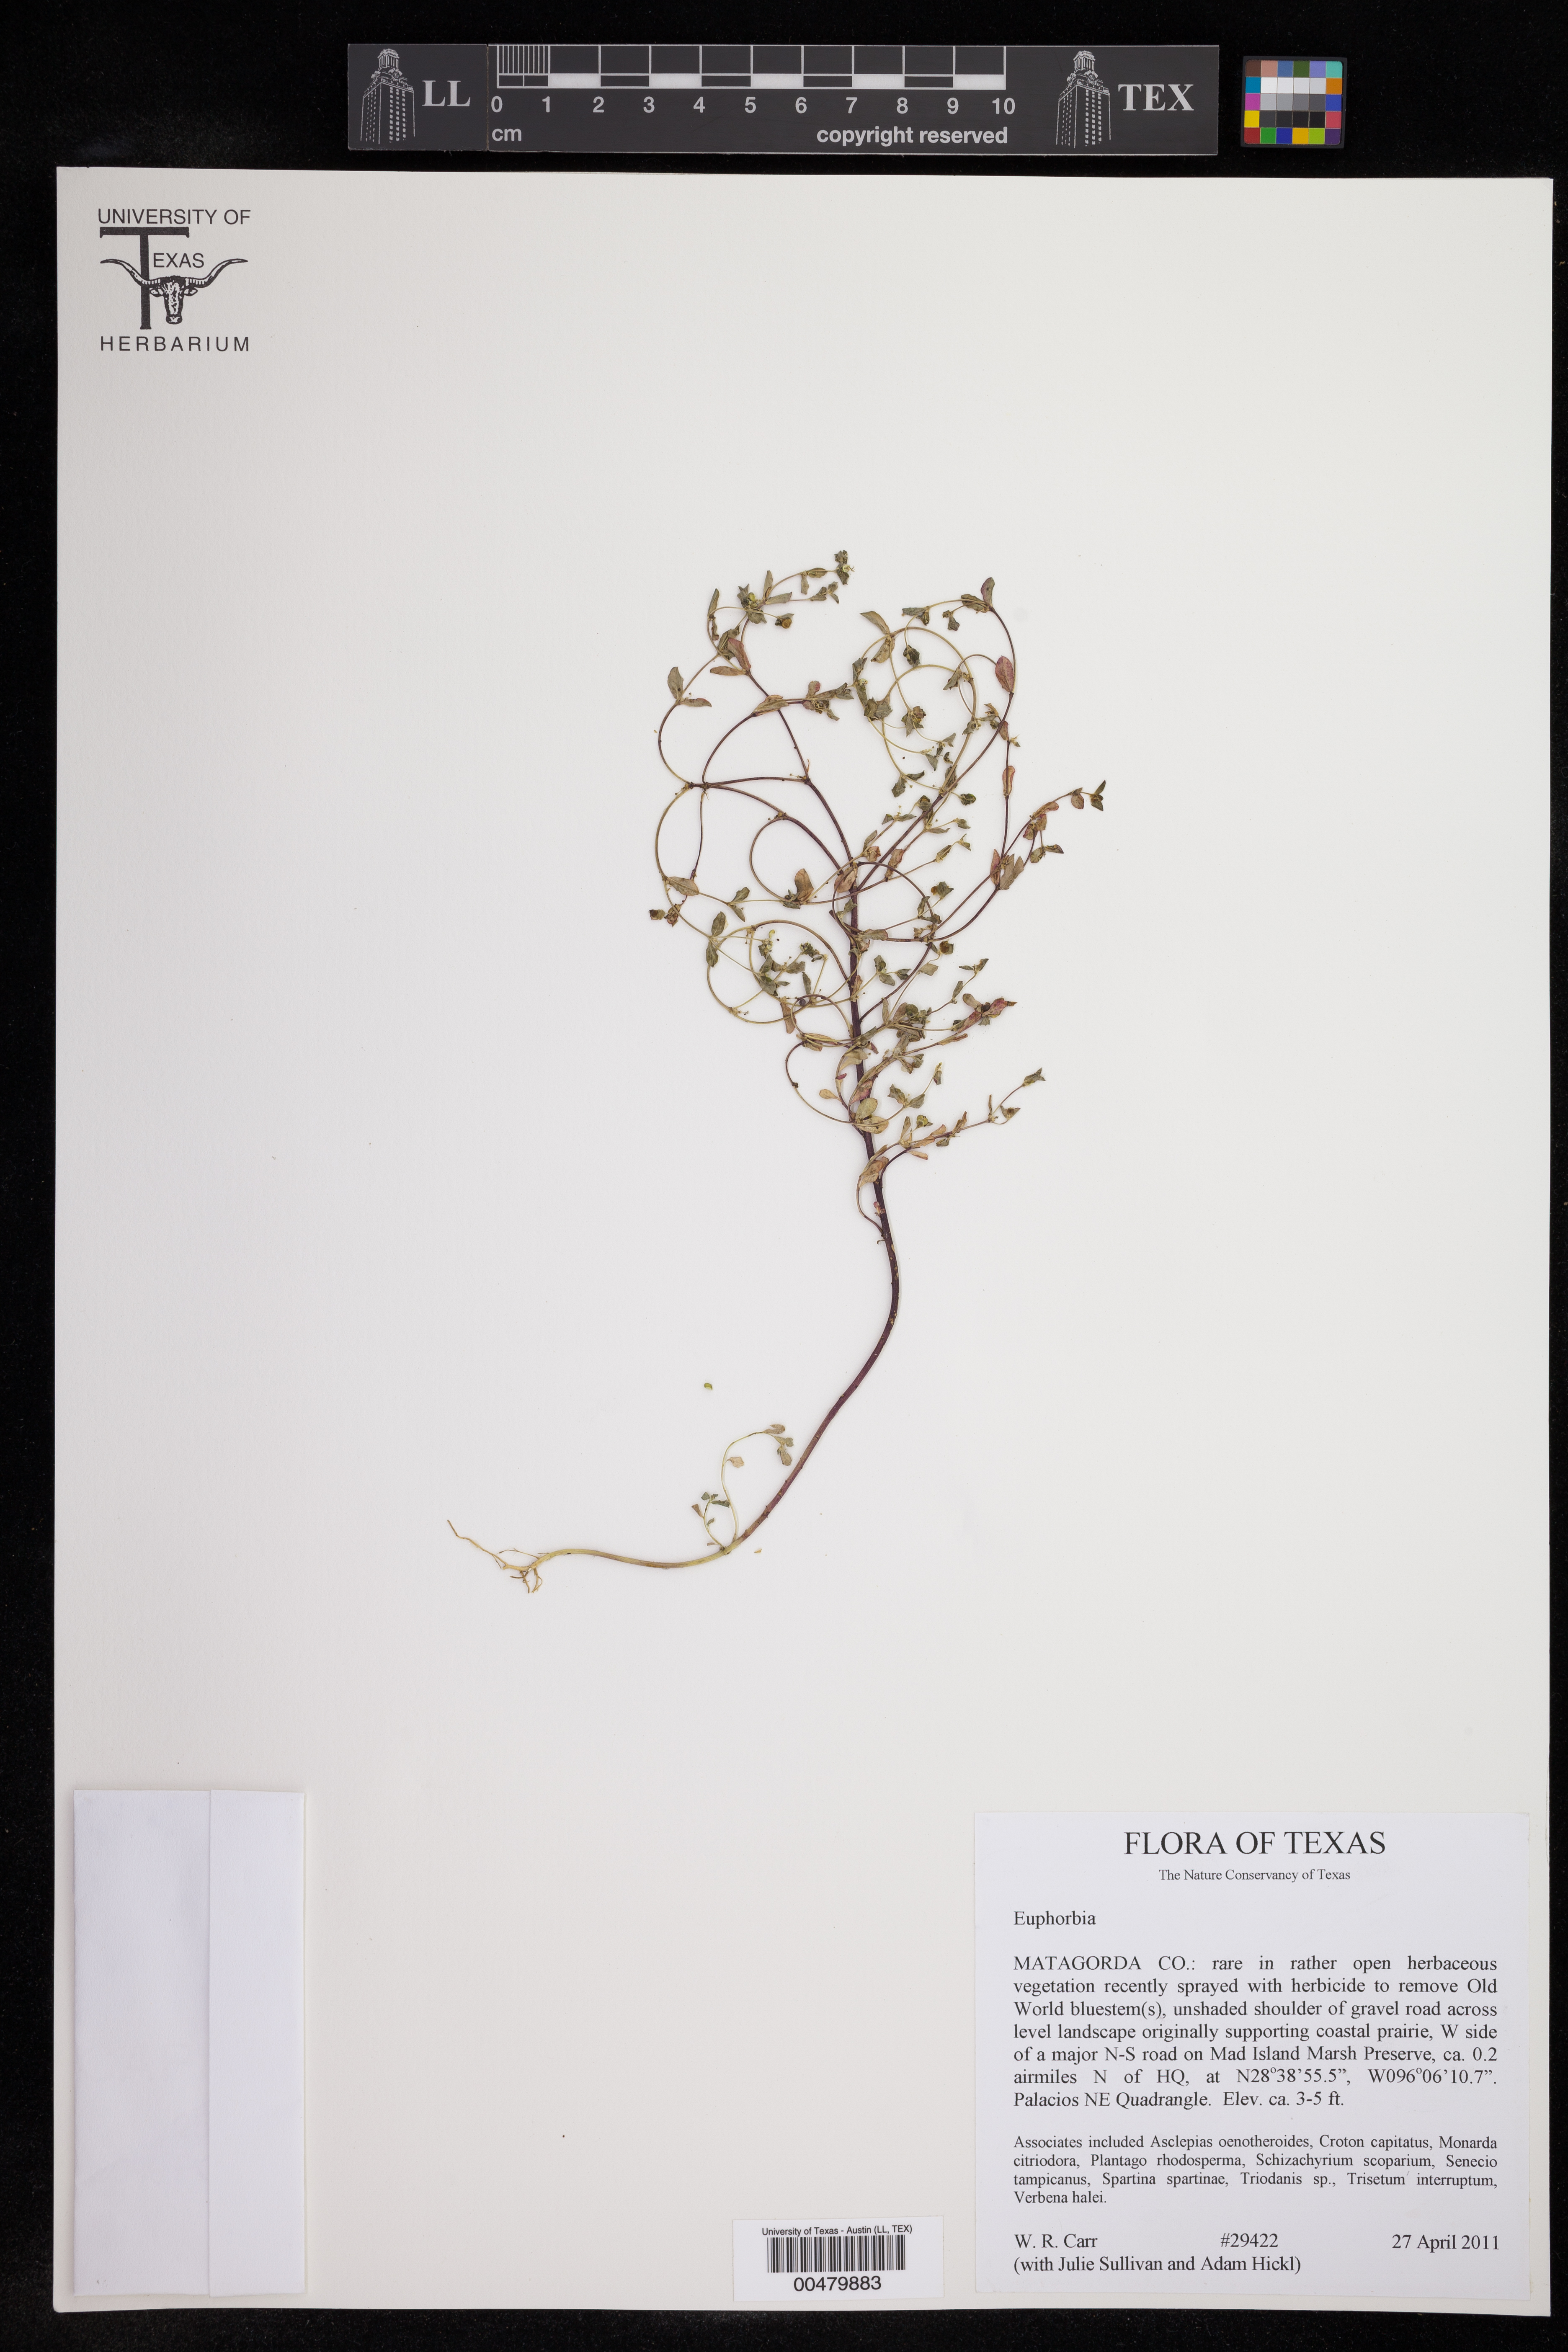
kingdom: Plantae
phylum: Tracheophyta
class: Magnoliopsida
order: Malpighiales
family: Euphorbiaceae
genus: Euphorbia
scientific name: Euphorbia
